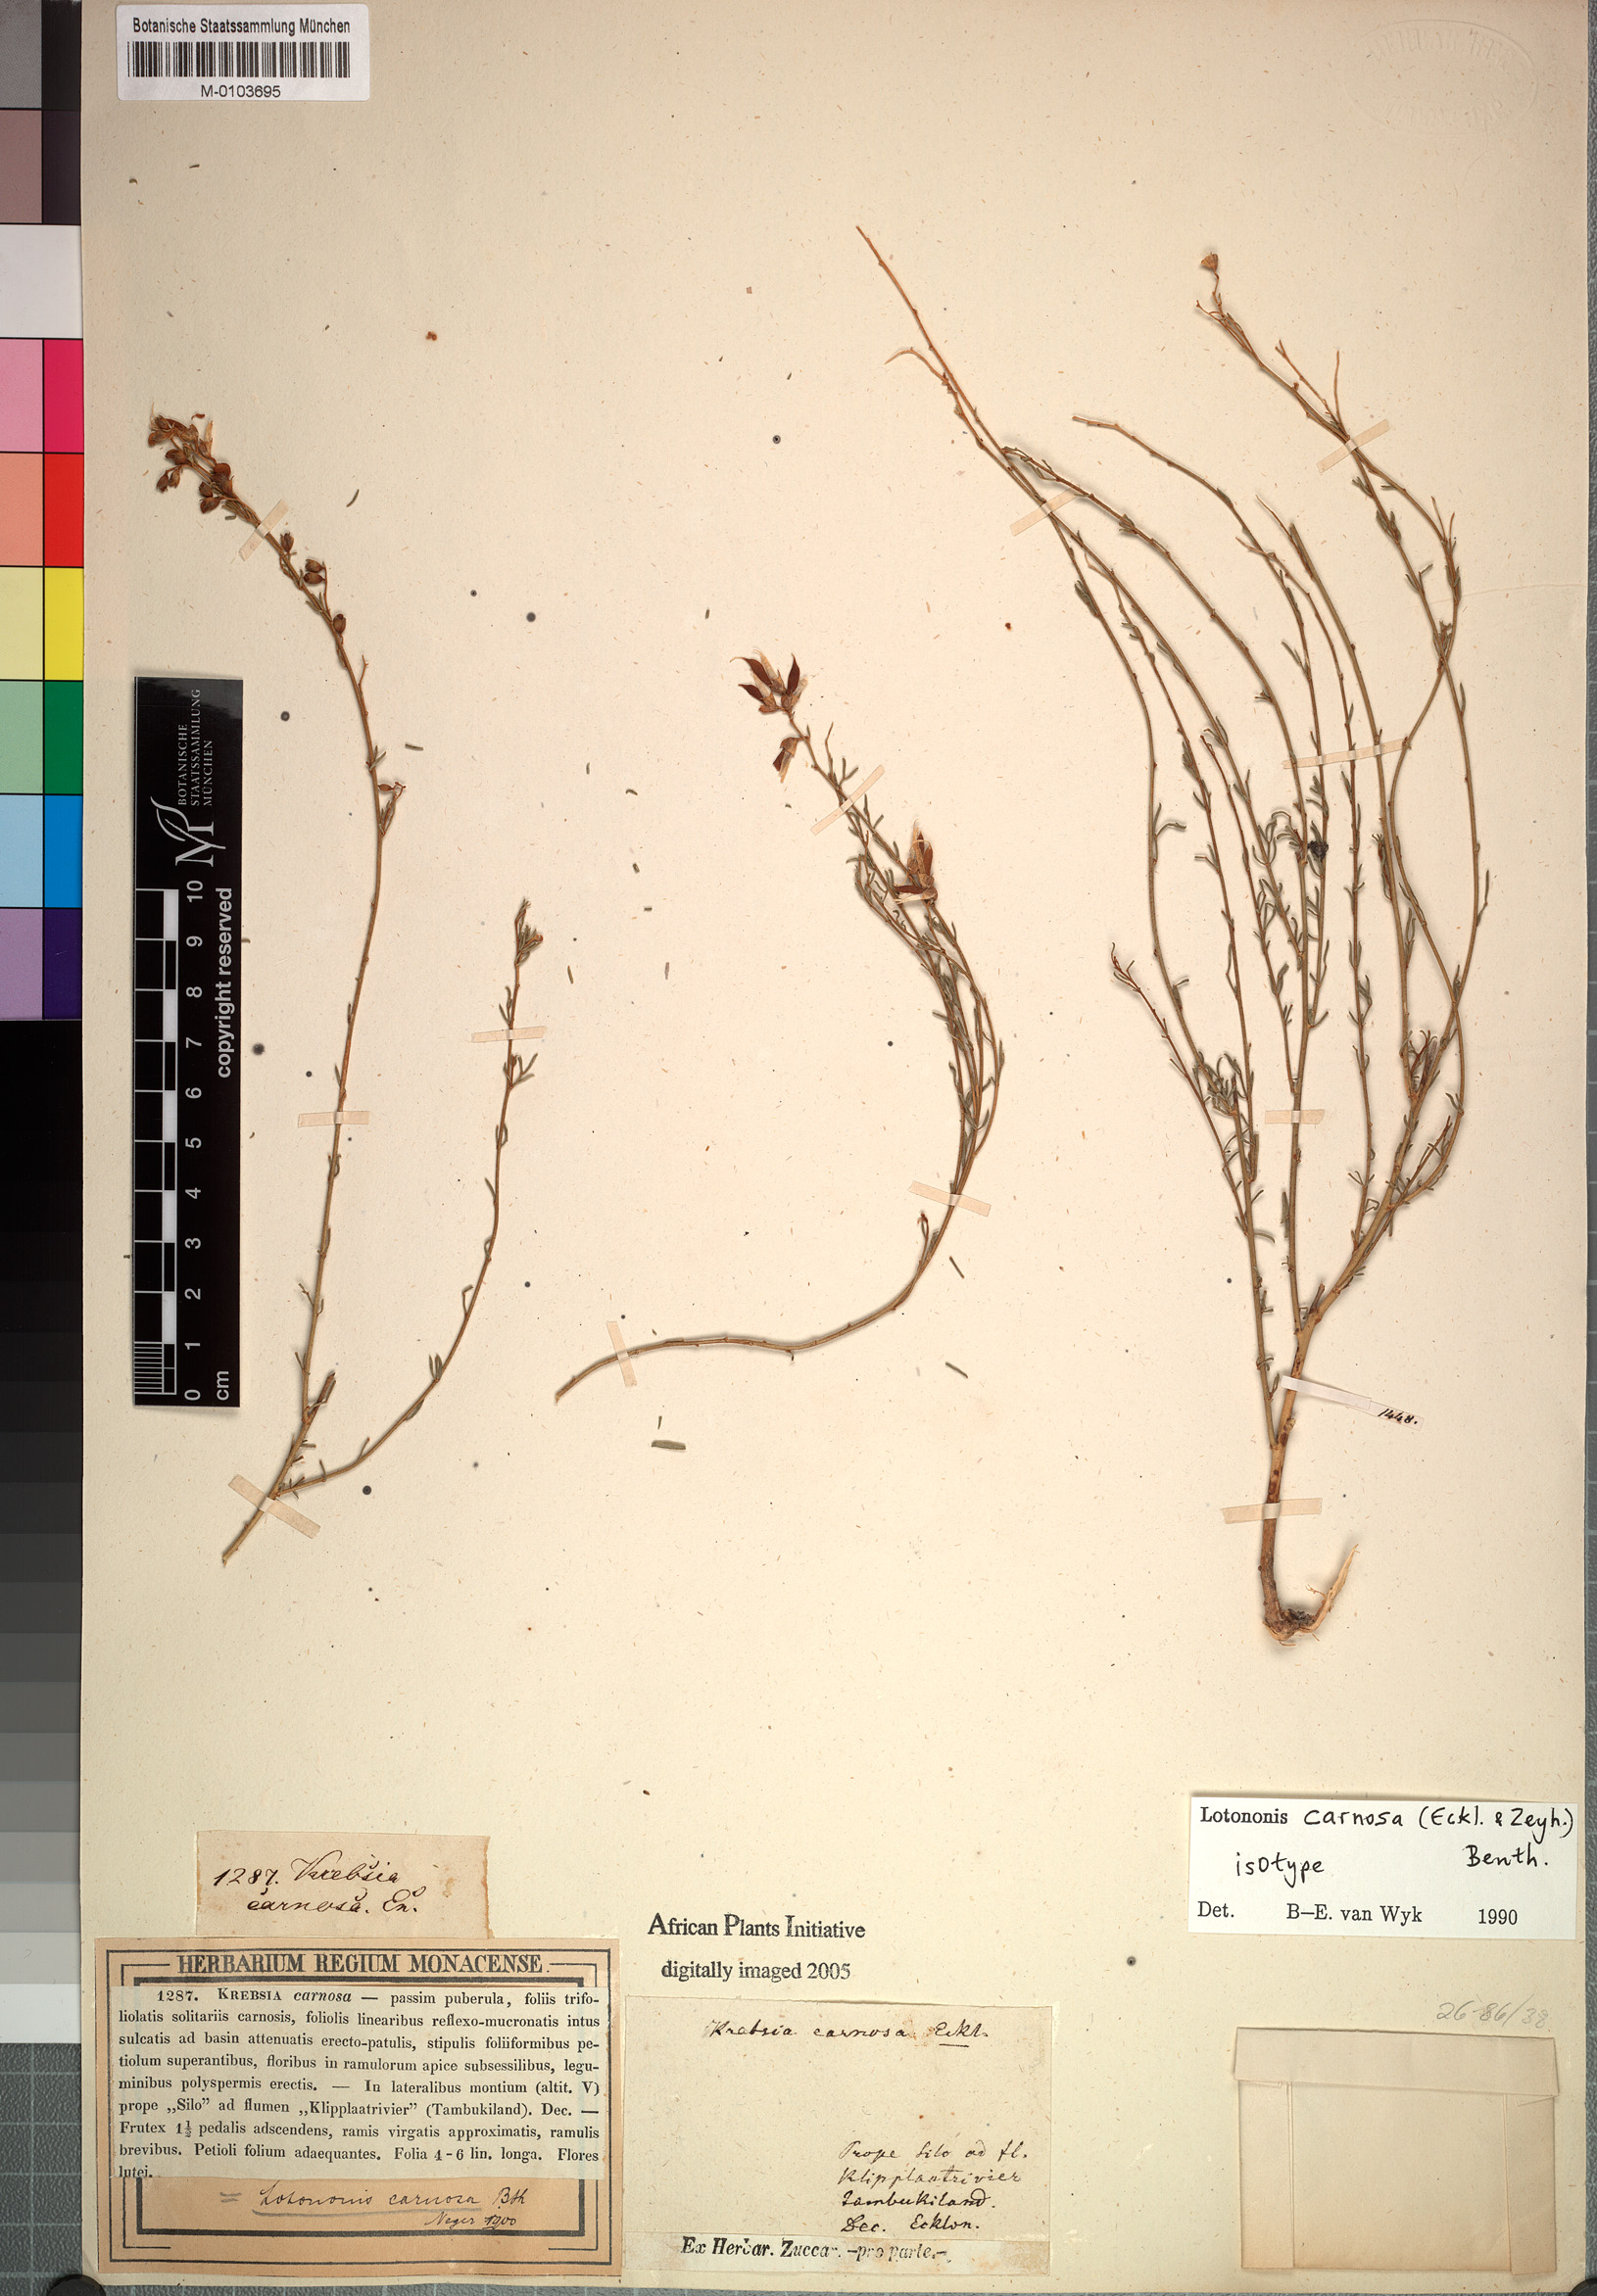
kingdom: Plantae
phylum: Tracheophyta
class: Magnoliopsida
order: Fabales
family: Fabaceae
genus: Lotononis
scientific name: Lotononis carnosa
